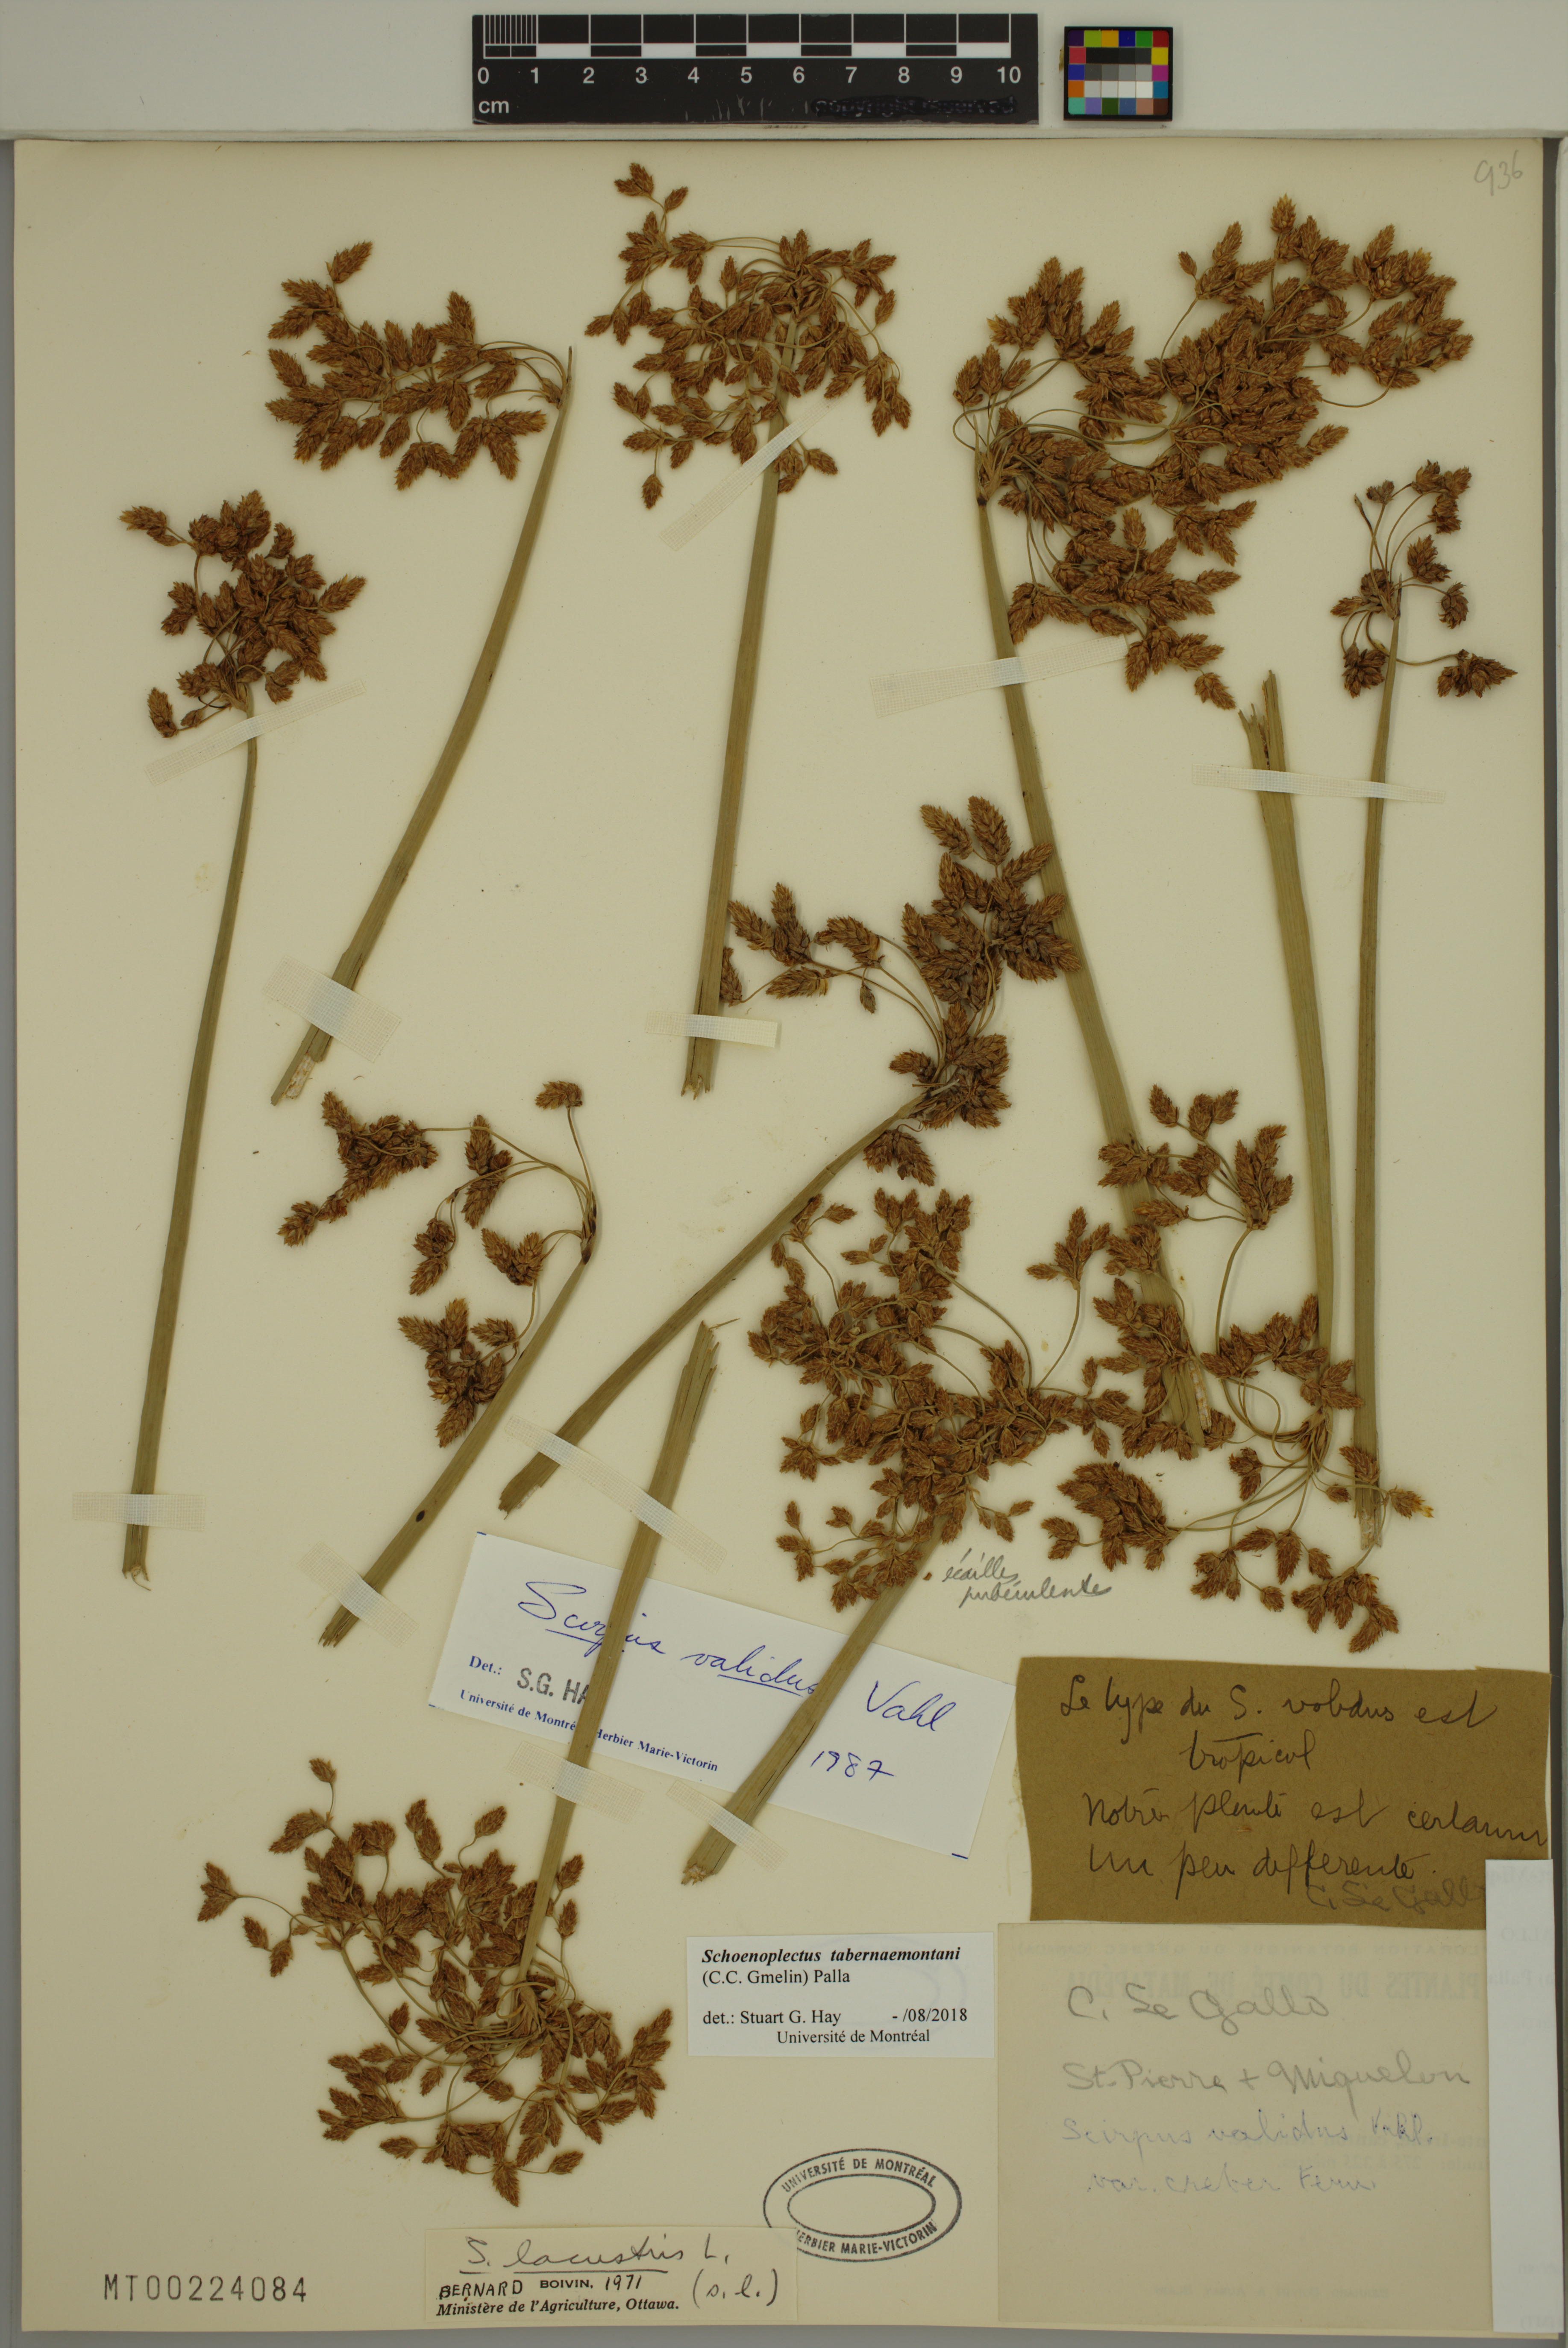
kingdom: Plantae
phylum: Tracheophyta
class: Liliopsida
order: Poales
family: Cyperaceae
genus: Schoenoplectus
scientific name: Schoenoplectus tabernaemontani
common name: Grey club-rush
